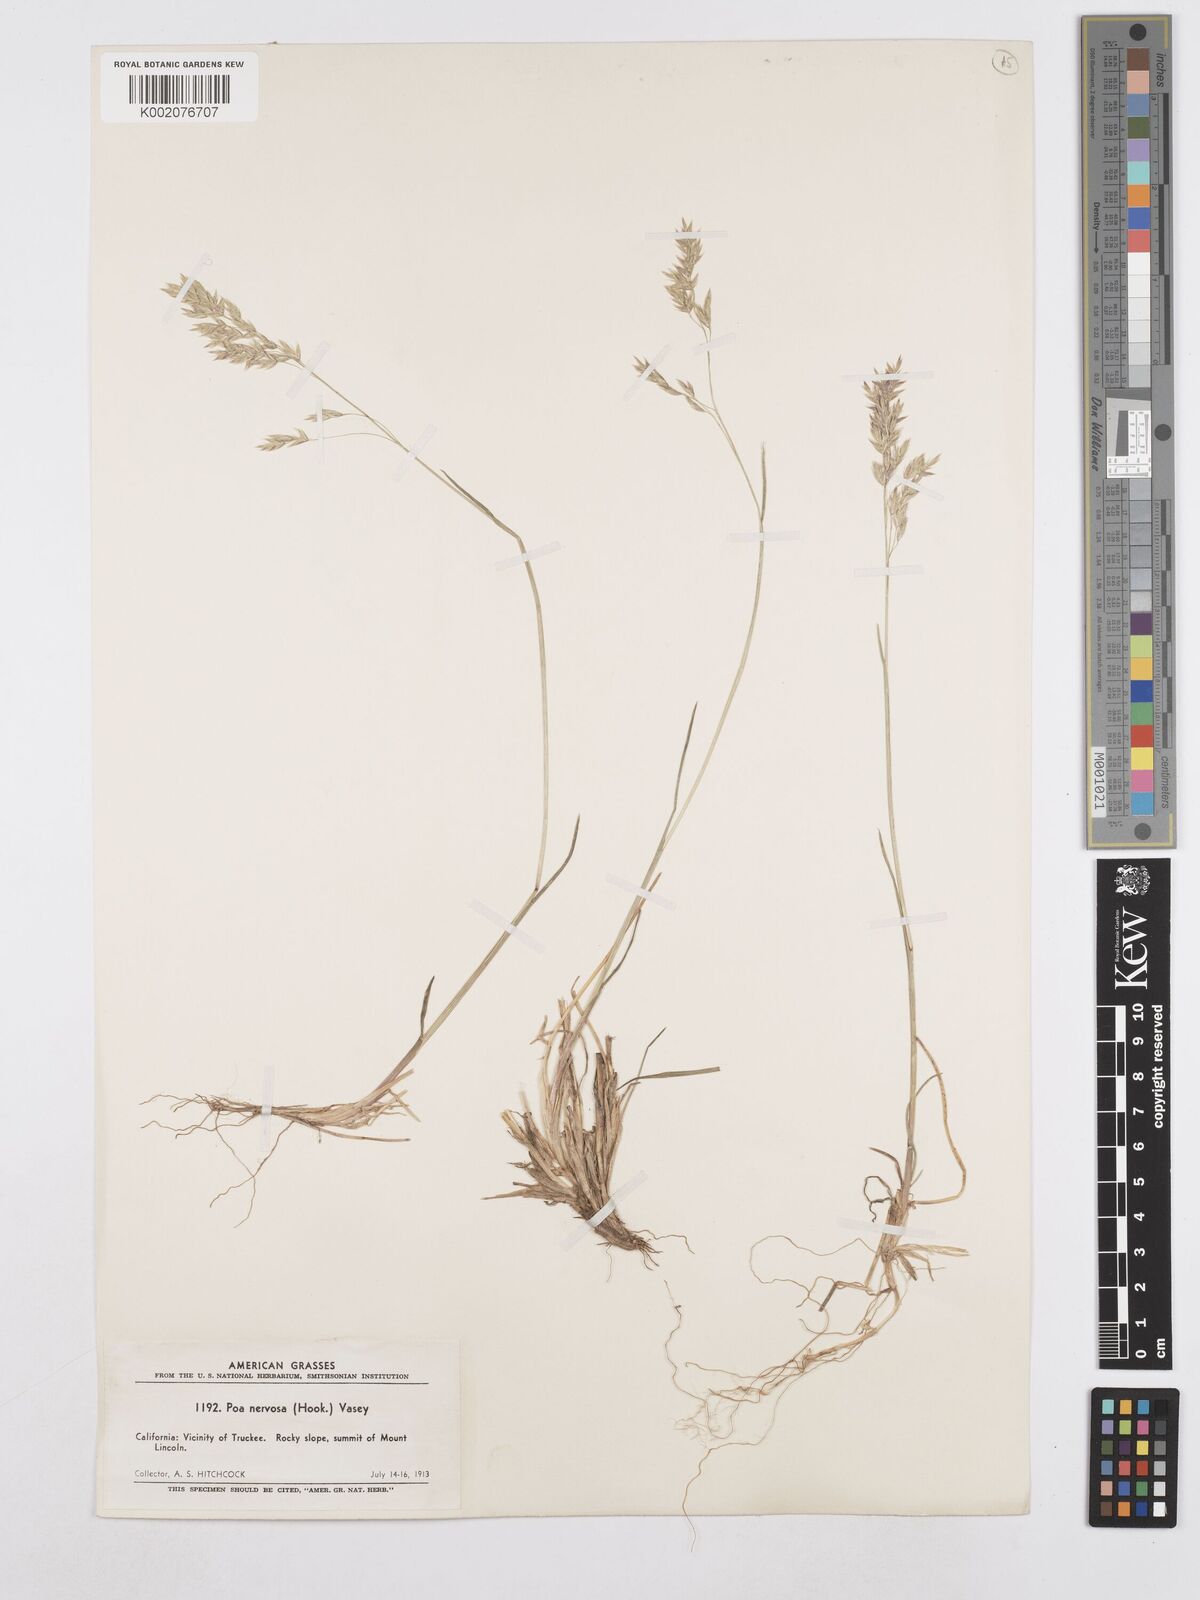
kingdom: Plantae
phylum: Tracheophyta
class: Liliopsida
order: Poales
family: Poaceae
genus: Poa
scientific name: Poa nervosa
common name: Hooker's bluegrass
